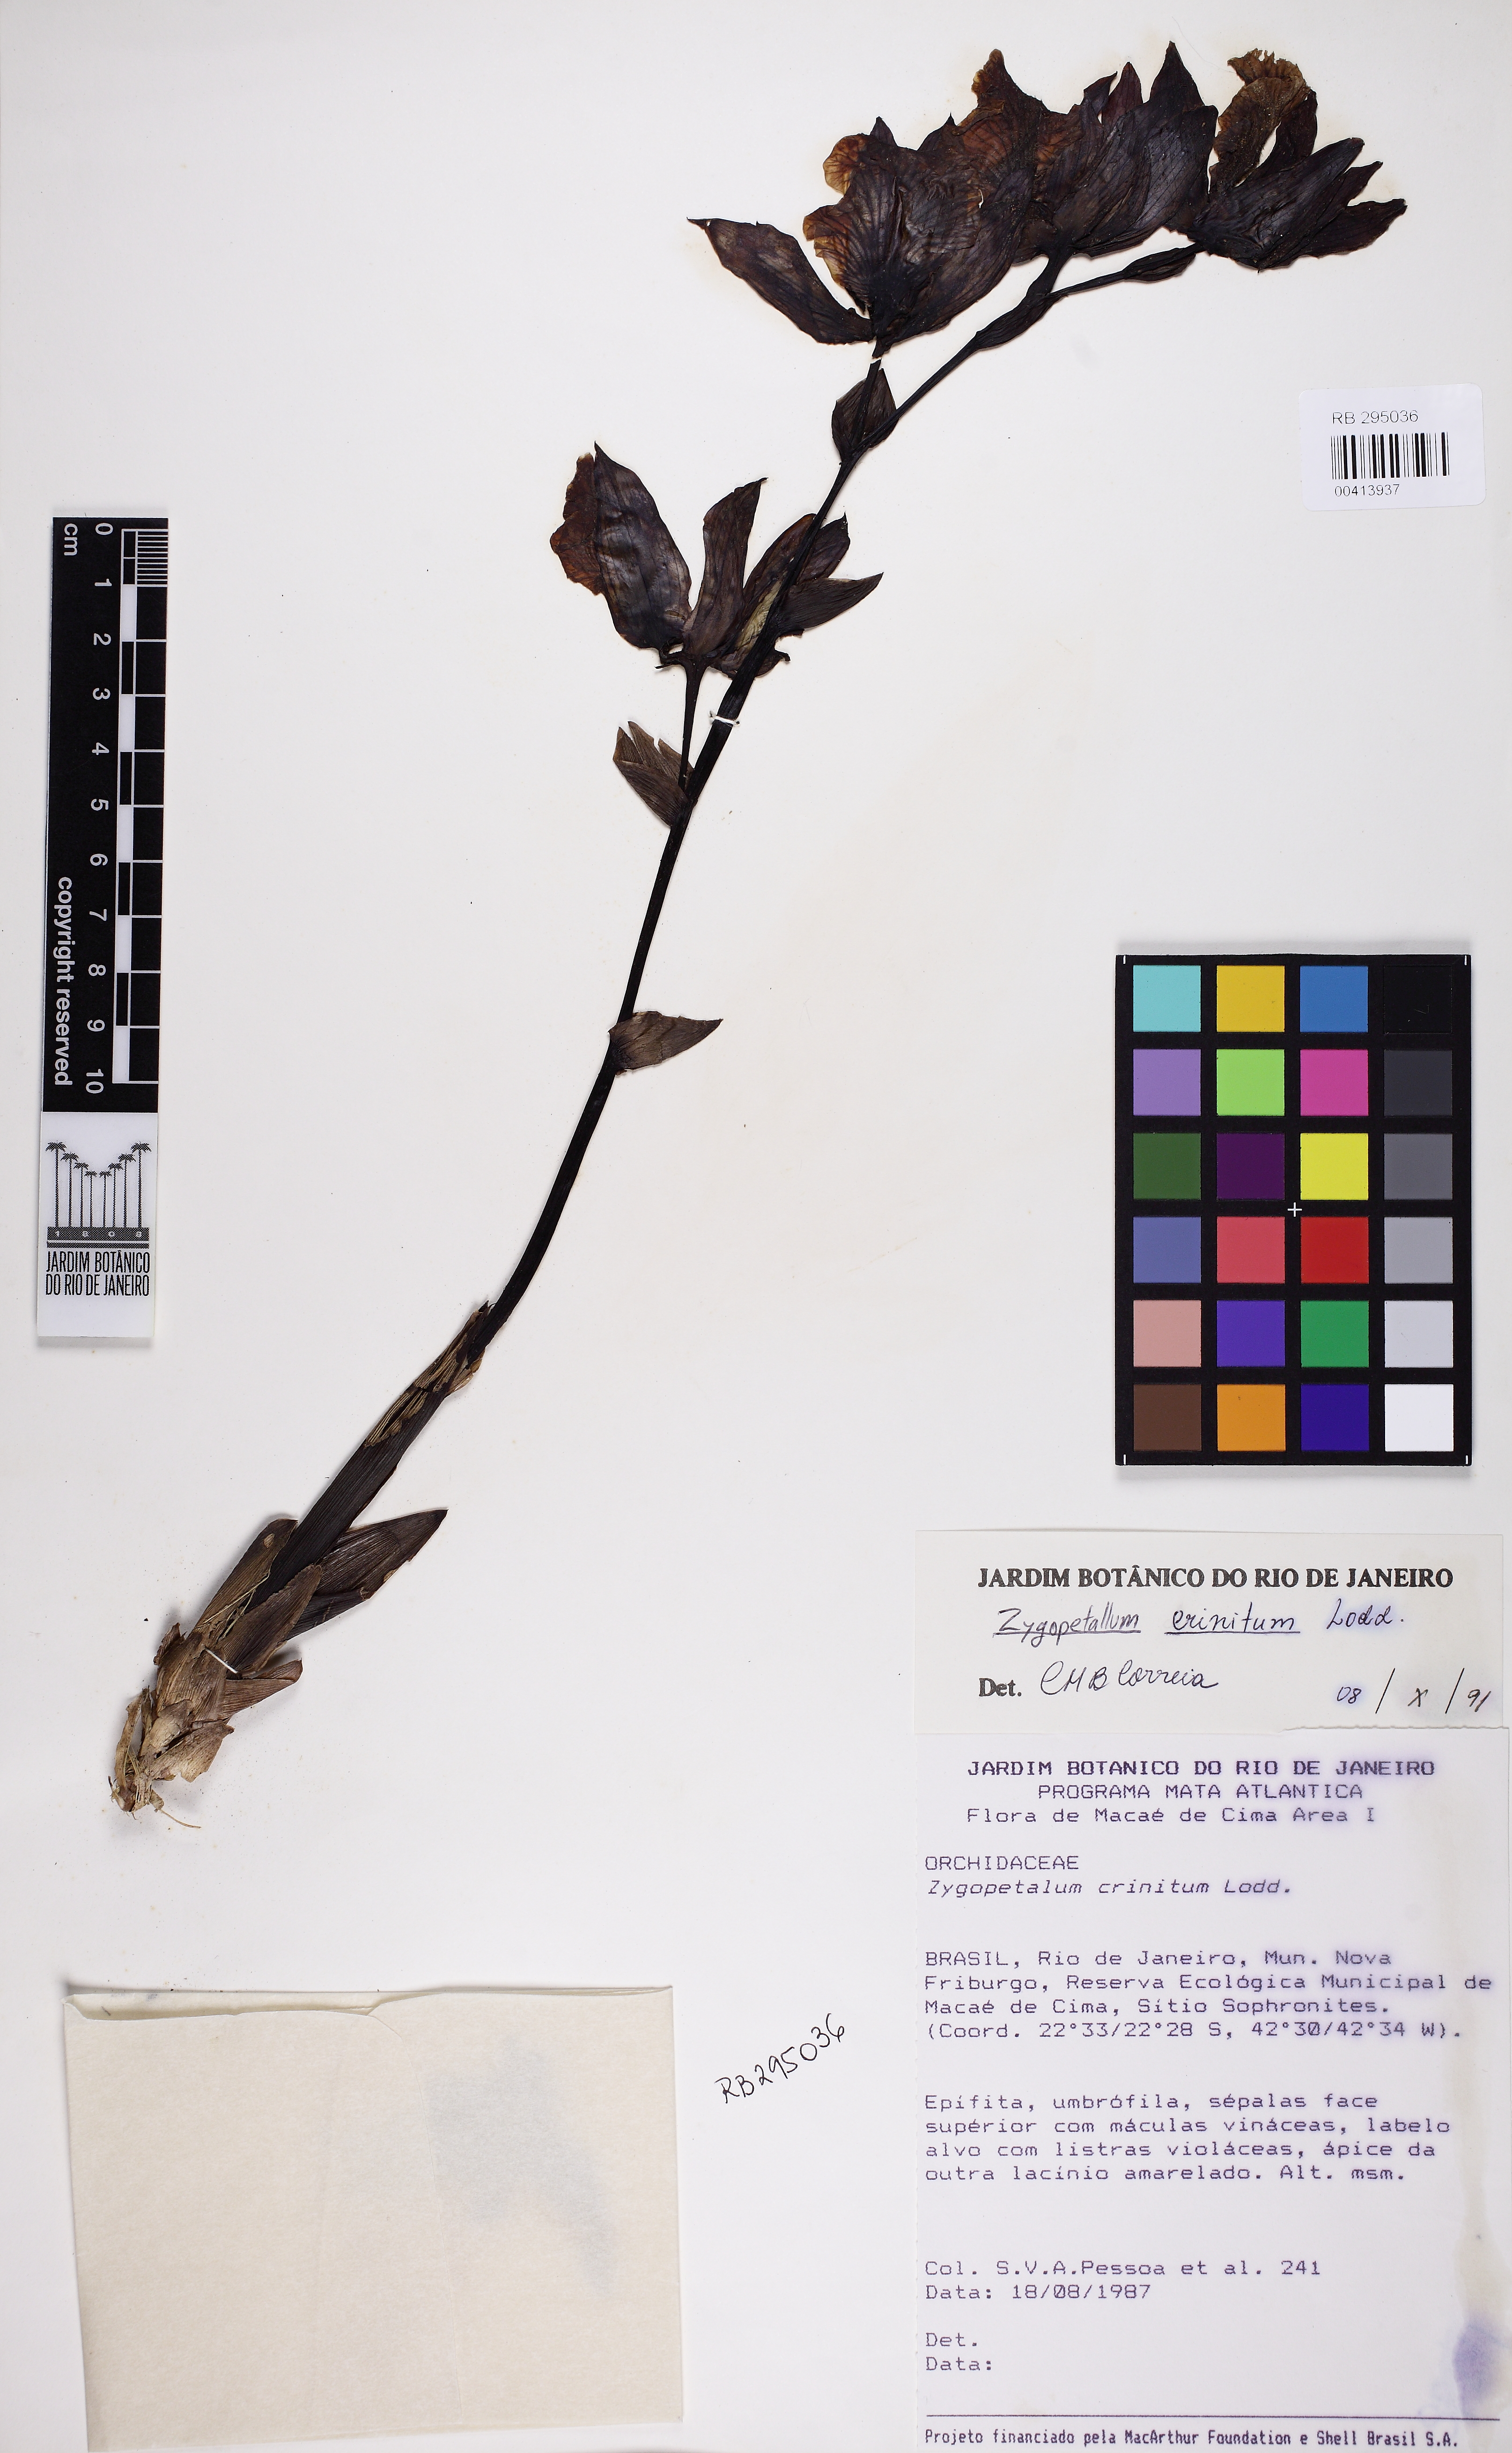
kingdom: Plantae
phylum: Tracheophyta
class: Liliopsida
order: Asparagales
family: Orchidaceae
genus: Zygopetalum
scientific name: Zygopetalum crinitum
